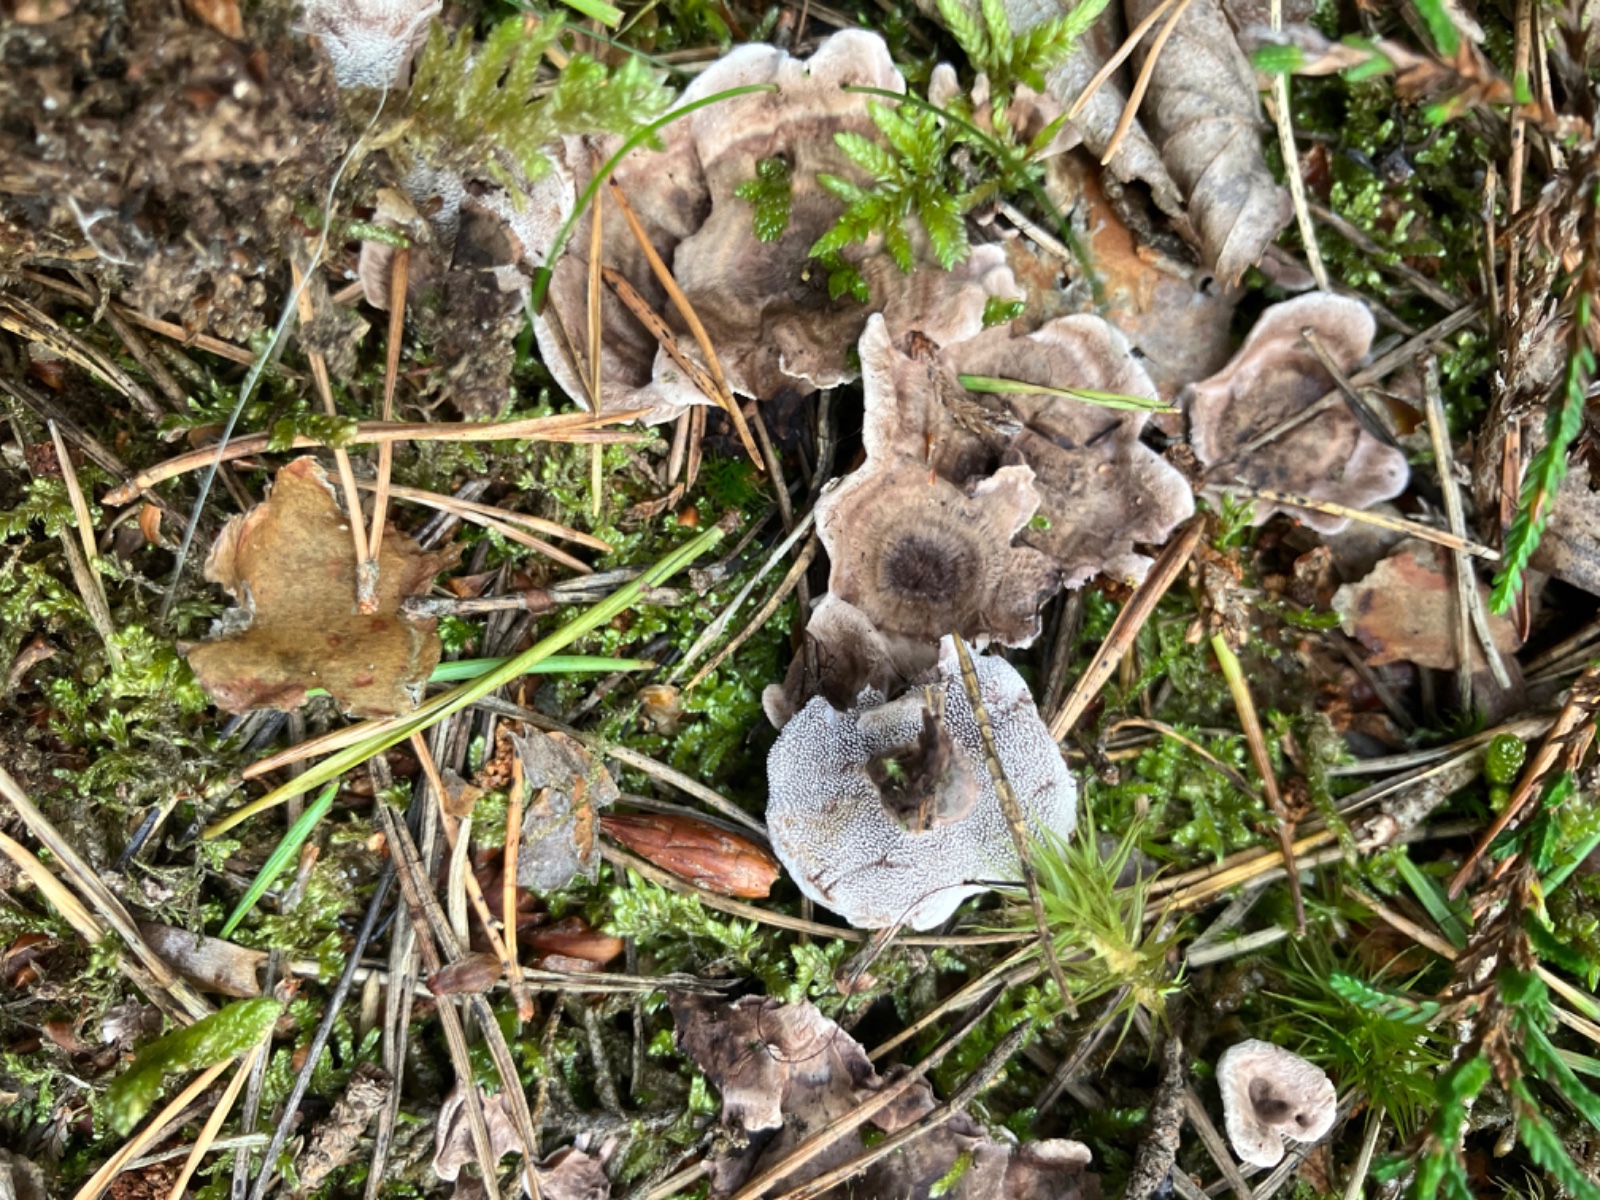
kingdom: Fungi
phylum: Basidiomycota
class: Agaricomycetes
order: Thelephorales
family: Thelephoraceae
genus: Phellodon
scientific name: Phellodon tomentosus
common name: tragtformet duftpigsvamp
